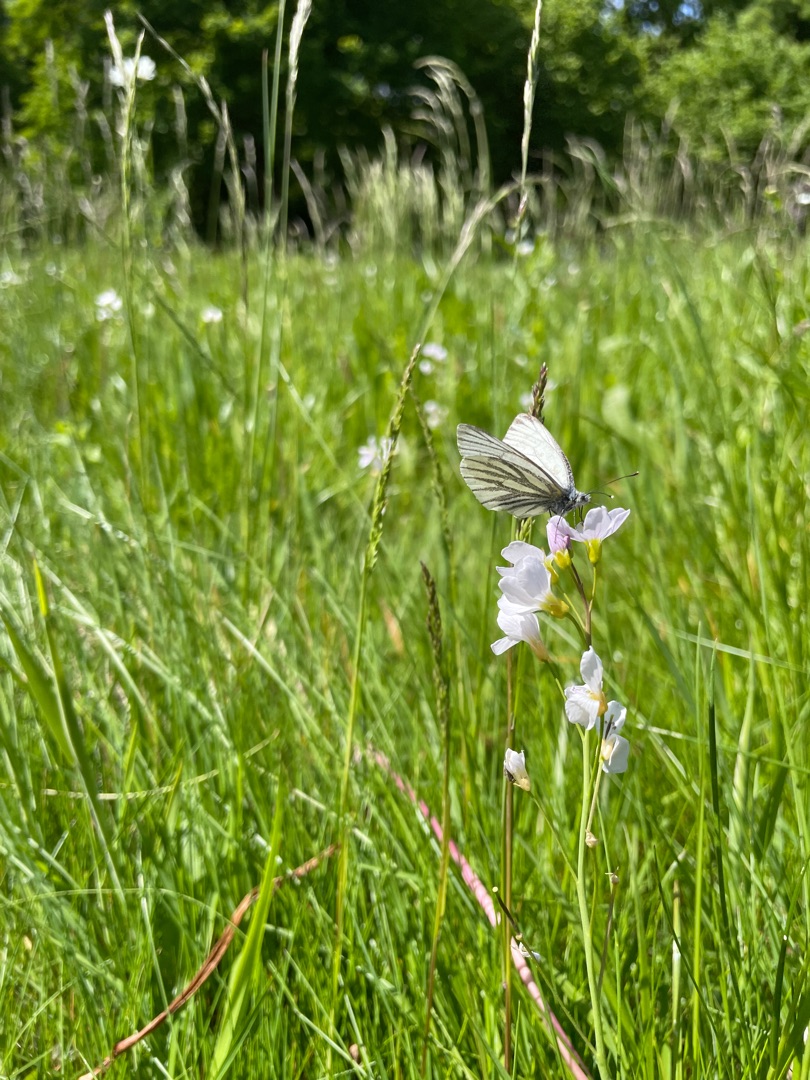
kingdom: Animalia
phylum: Arthropoda
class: Insecta
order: Lepidoptera
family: Pieridae
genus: Pieris
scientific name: Pieris napi
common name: Grønåret kålsommerfugl
